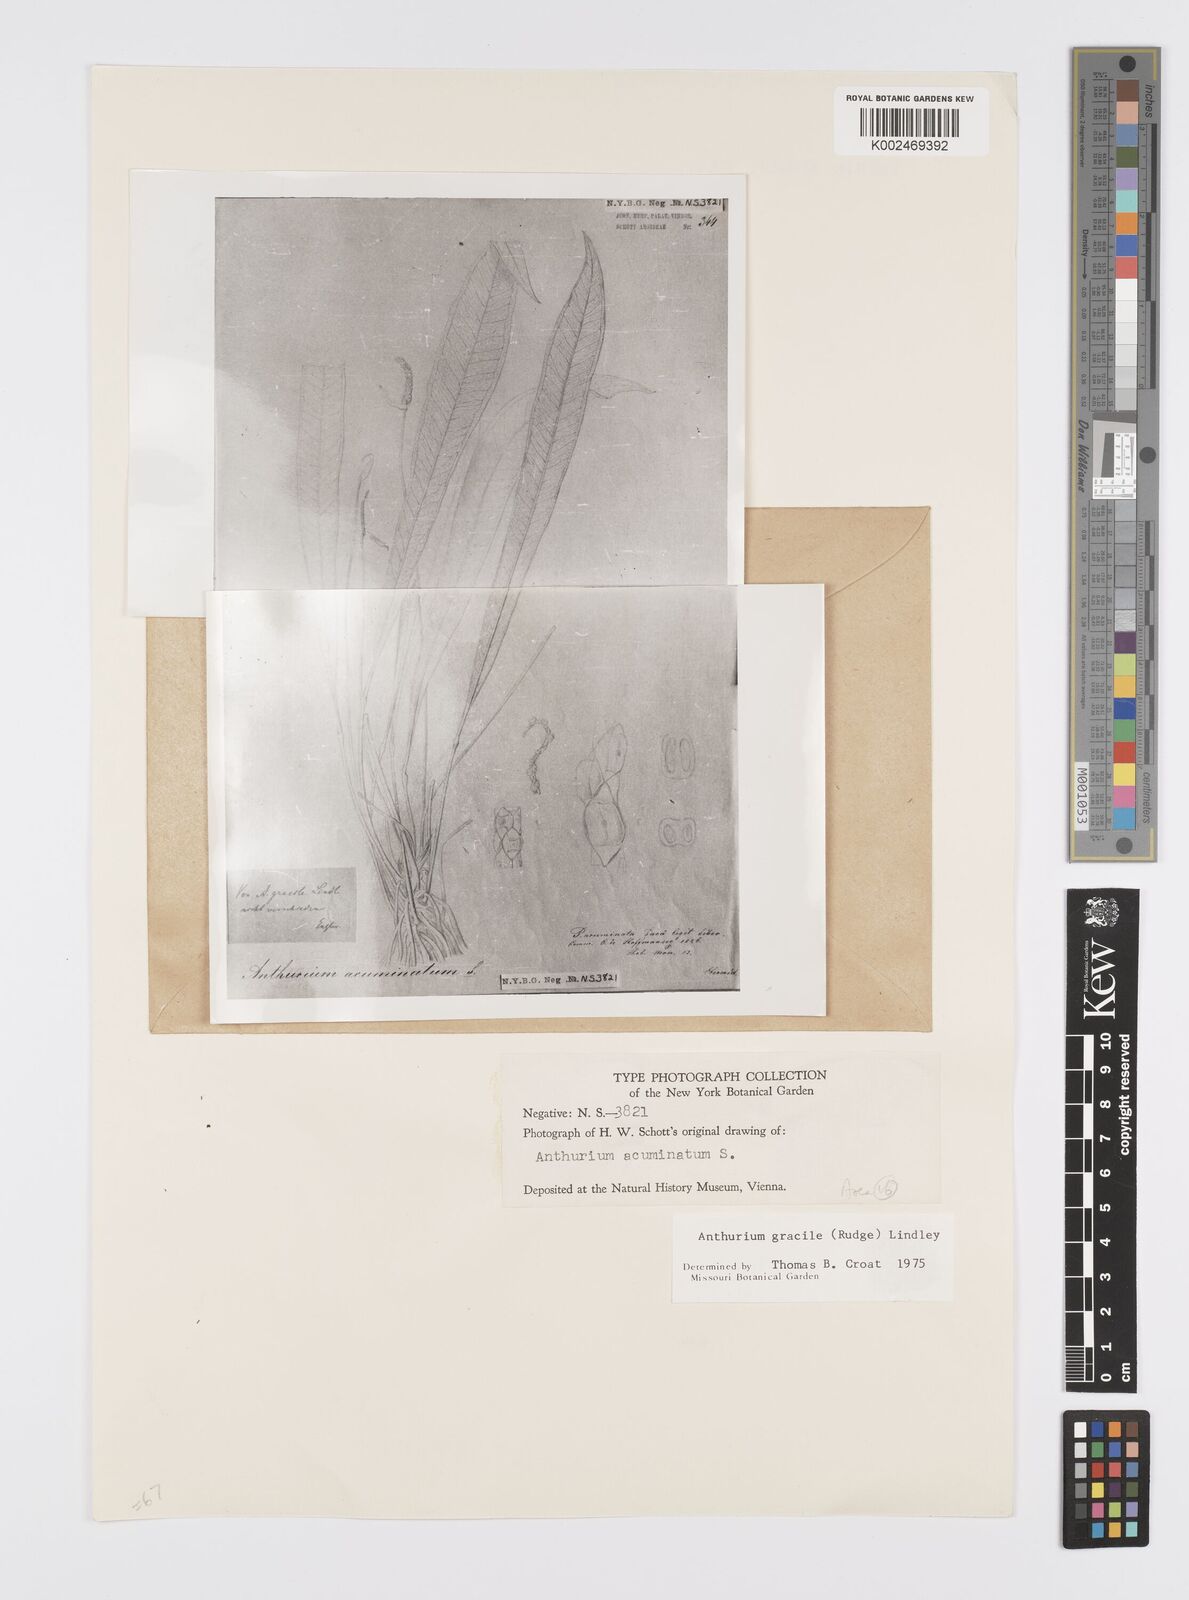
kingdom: Plantae
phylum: Tracheophyta
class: Liliopsida
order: Alismatales
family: Araceae
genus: Anthurium
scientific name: Anthurium gracile
